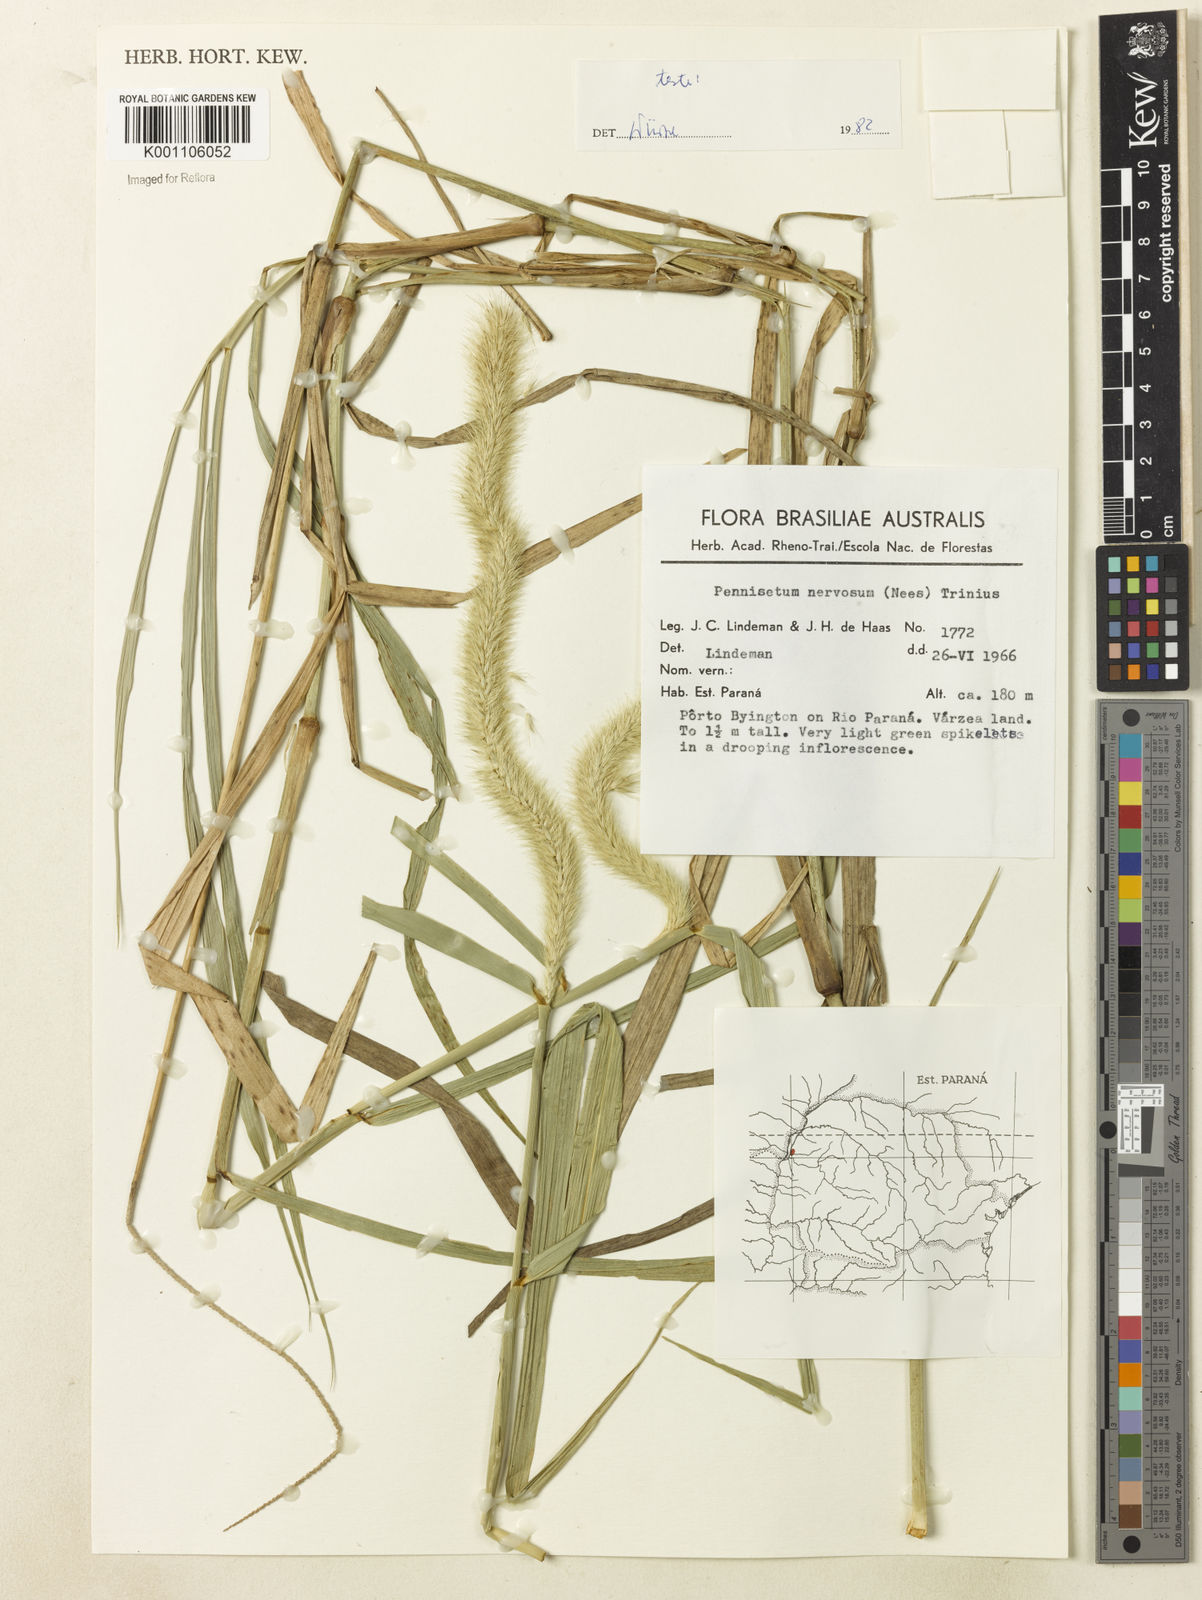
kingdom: Plantae
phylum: Tracheophyta
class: Liliopsida
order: Poales
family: Poaceae
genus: Cenchrus
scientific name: Cenchrus nervosus
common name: Bentspike fountaingrass
